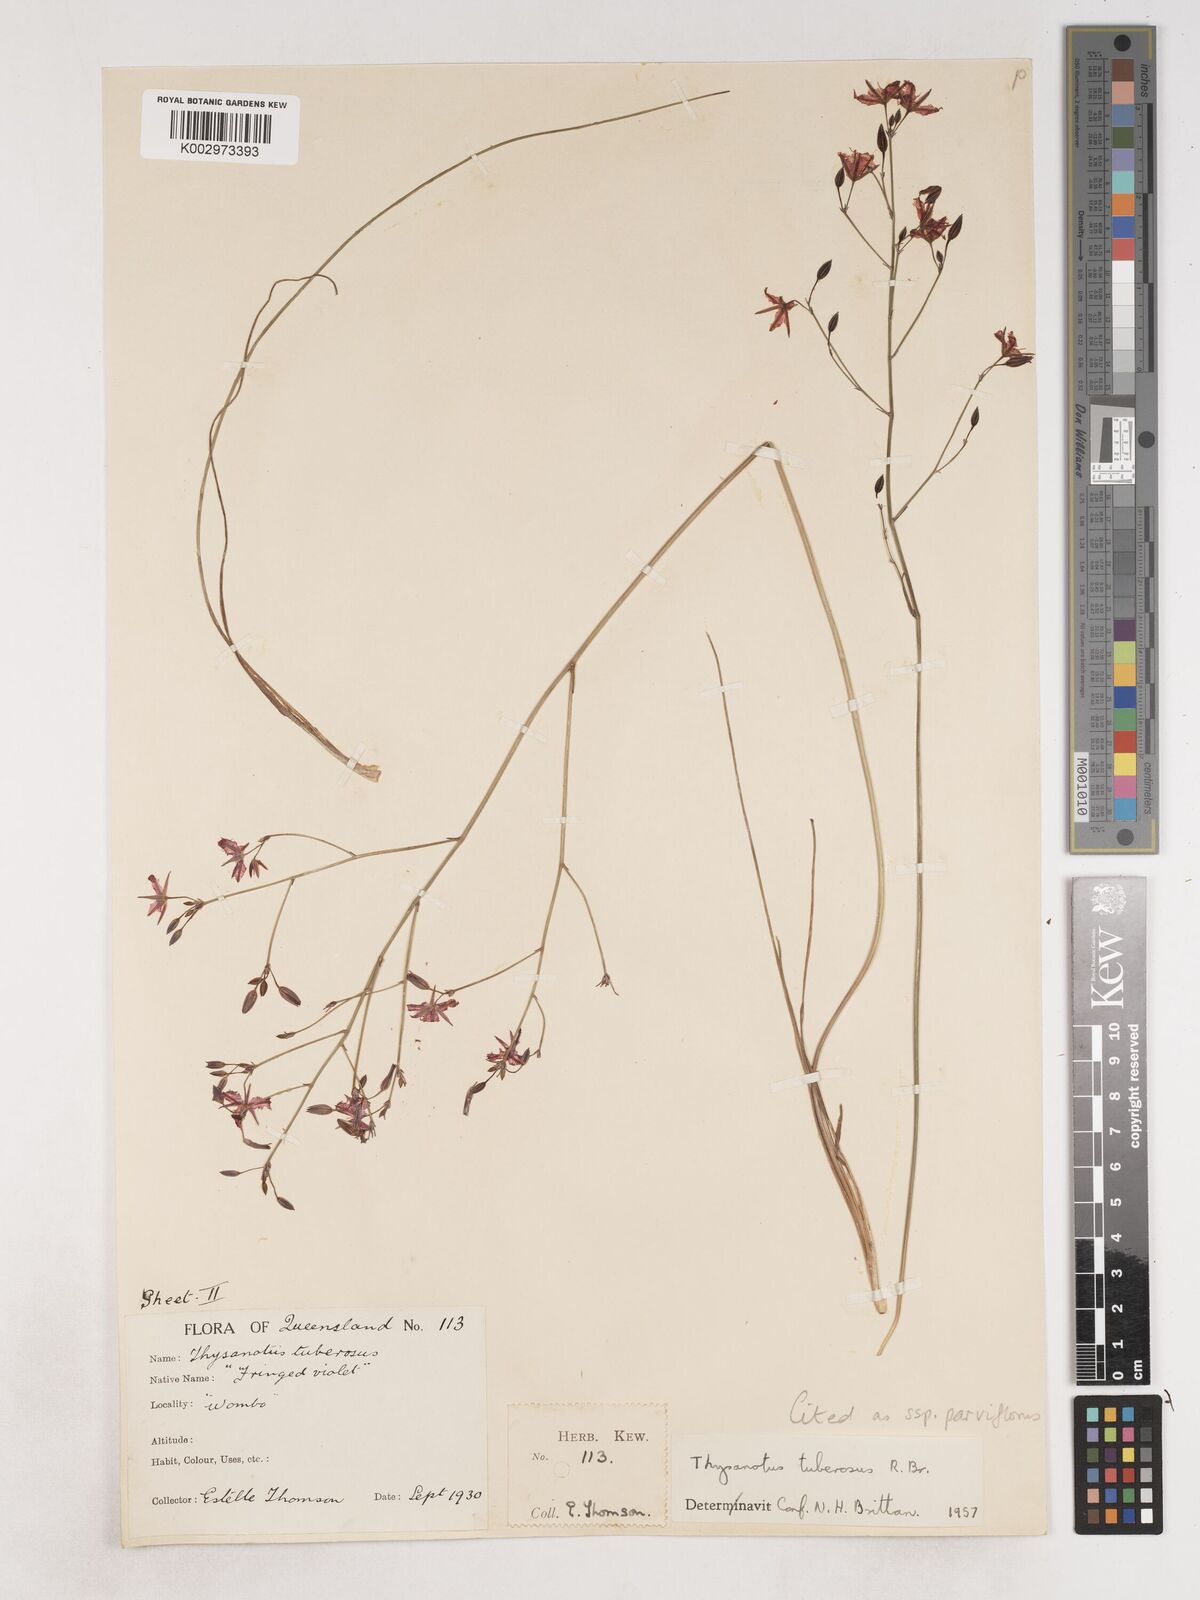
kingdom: Plantae
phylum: Tracheophyta
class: Liliopsida
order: Asparagales
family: Asparagaceae
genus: Thysanotus
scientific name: Thysanotus tuberosus
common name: Common fringed-lily
